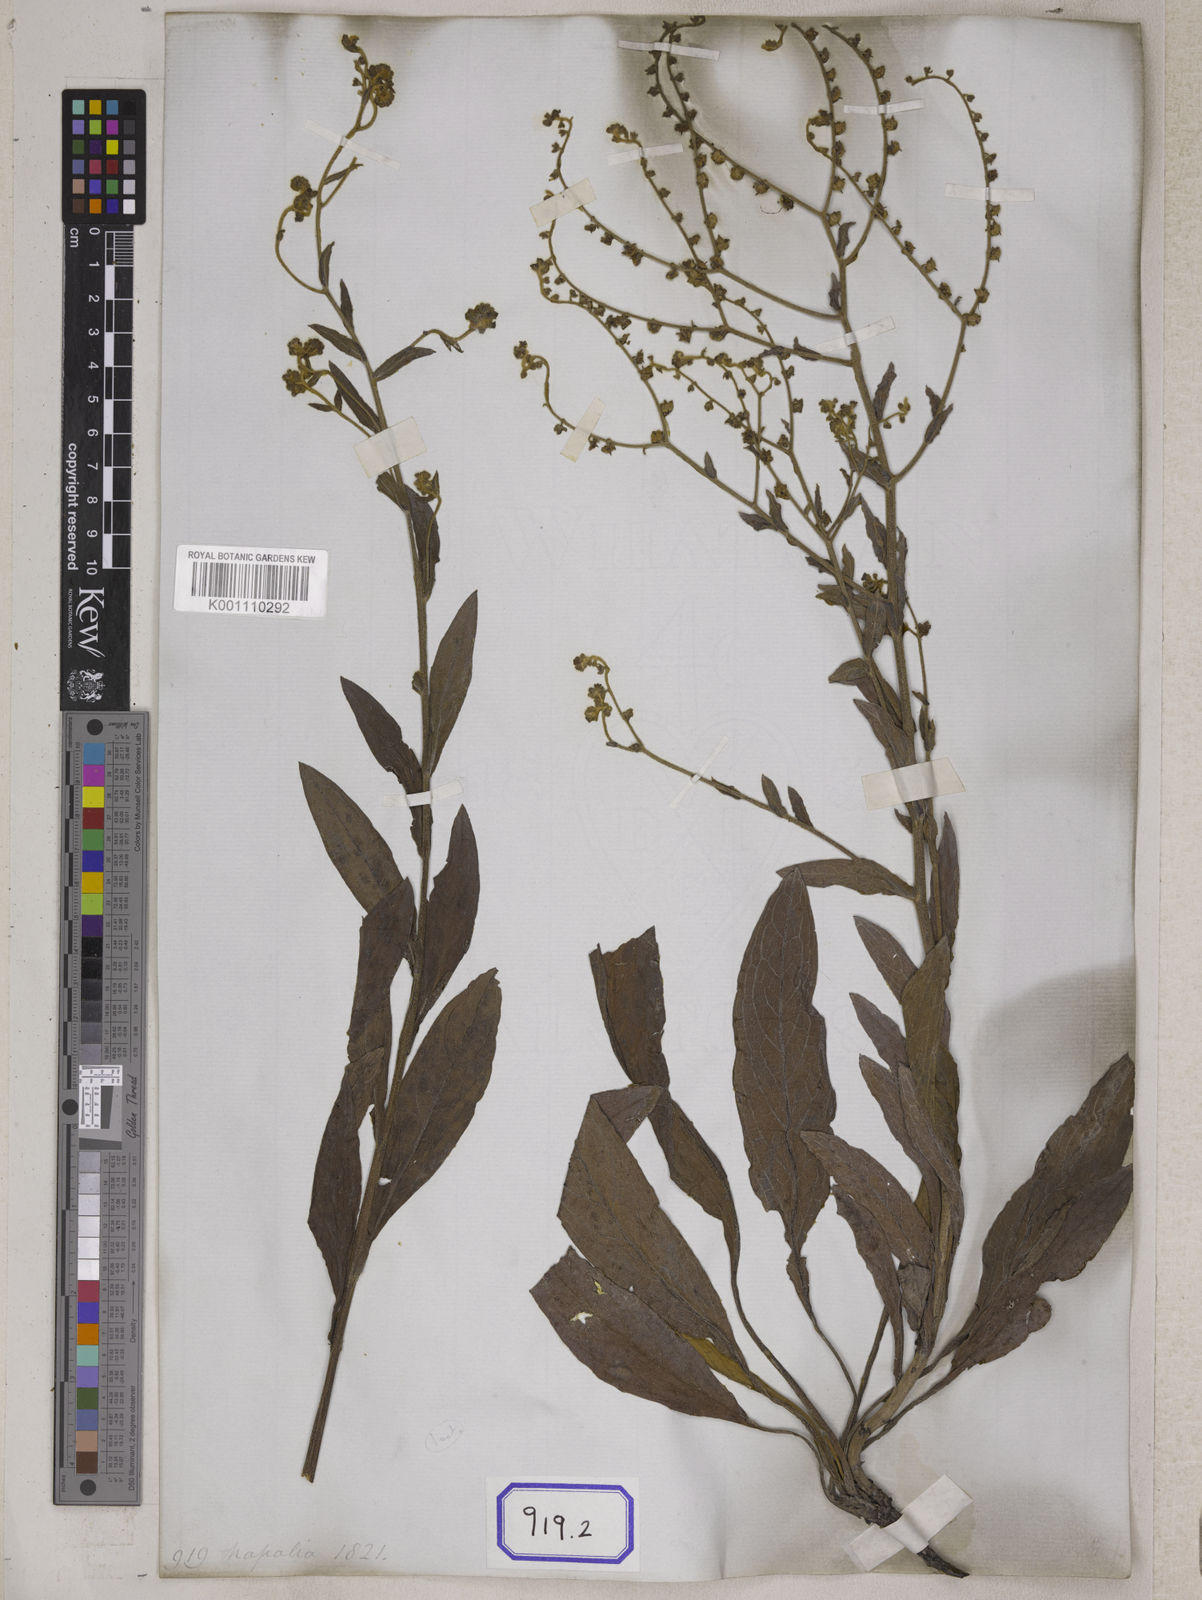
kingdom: Plantae
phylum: Tracheophyta
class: Magnoliopsida
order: Boraginales
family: Boraginaceae
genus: Rochelia
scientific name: Rochelia zeylanica
